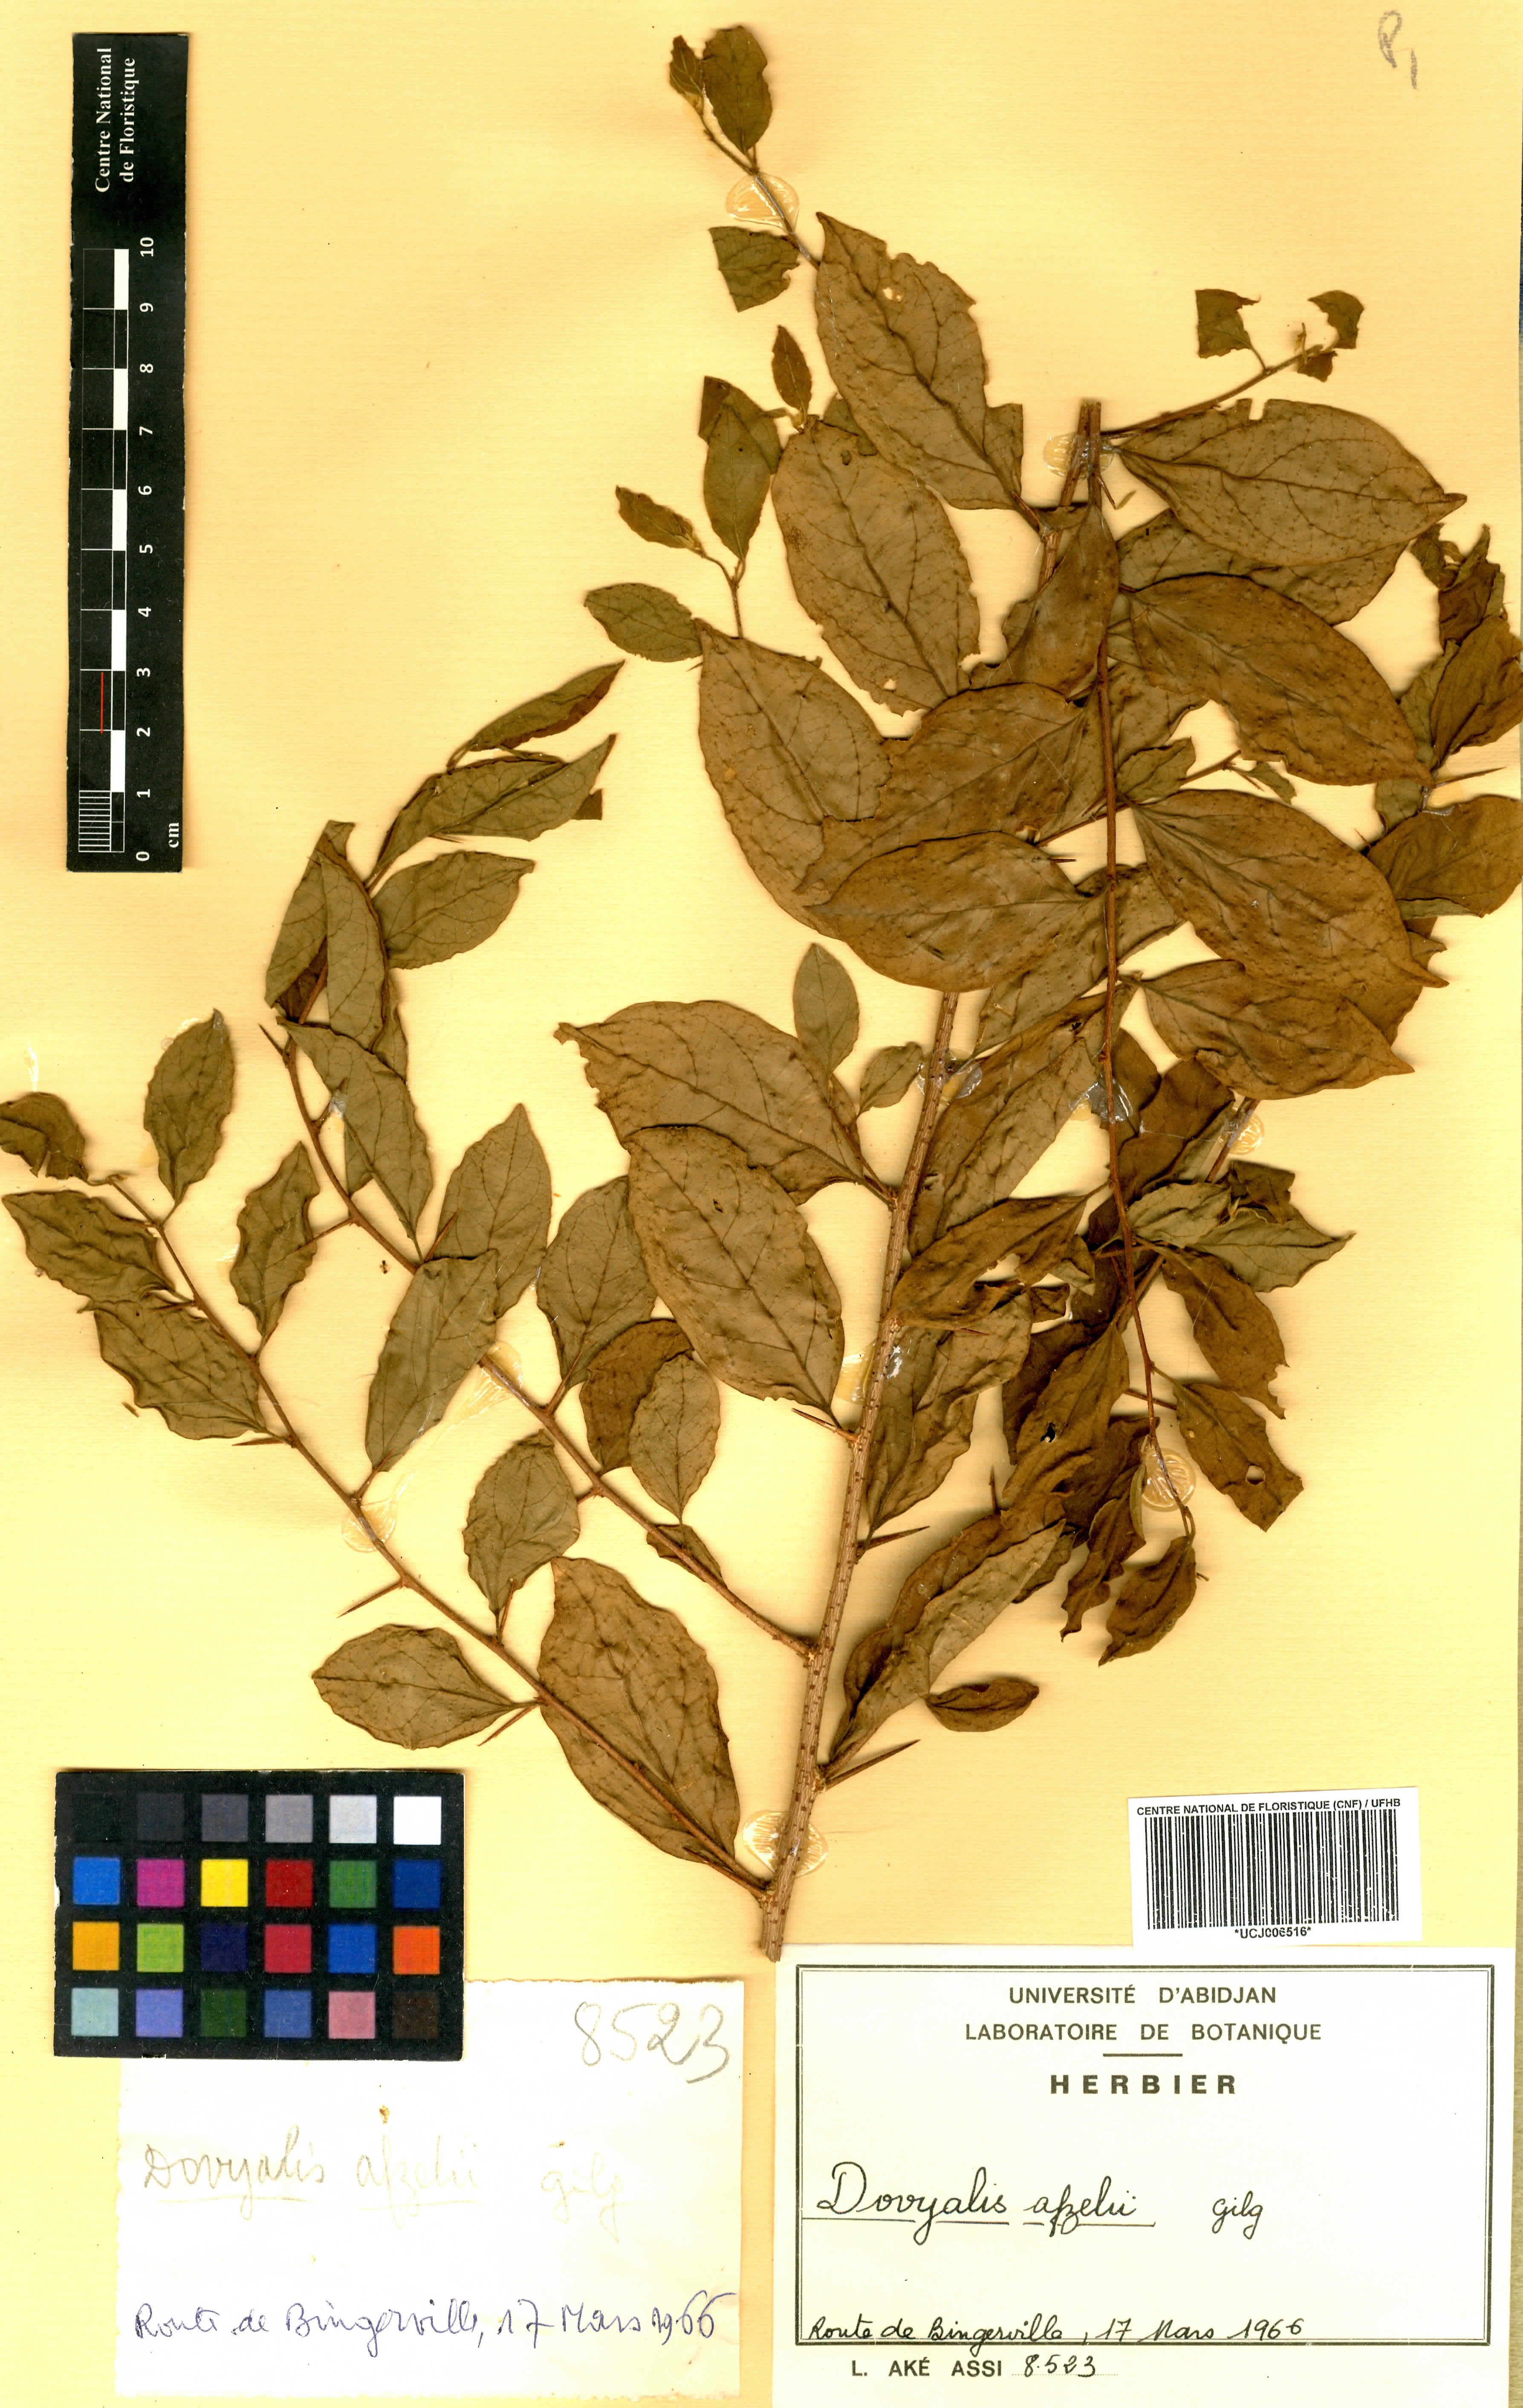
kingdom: Plantae
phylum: Tracheophyta
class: Magnoliopsida
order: Malpighiales
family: Salicaceae
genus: Dovyalis
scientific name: Dovyalis zenkeri
